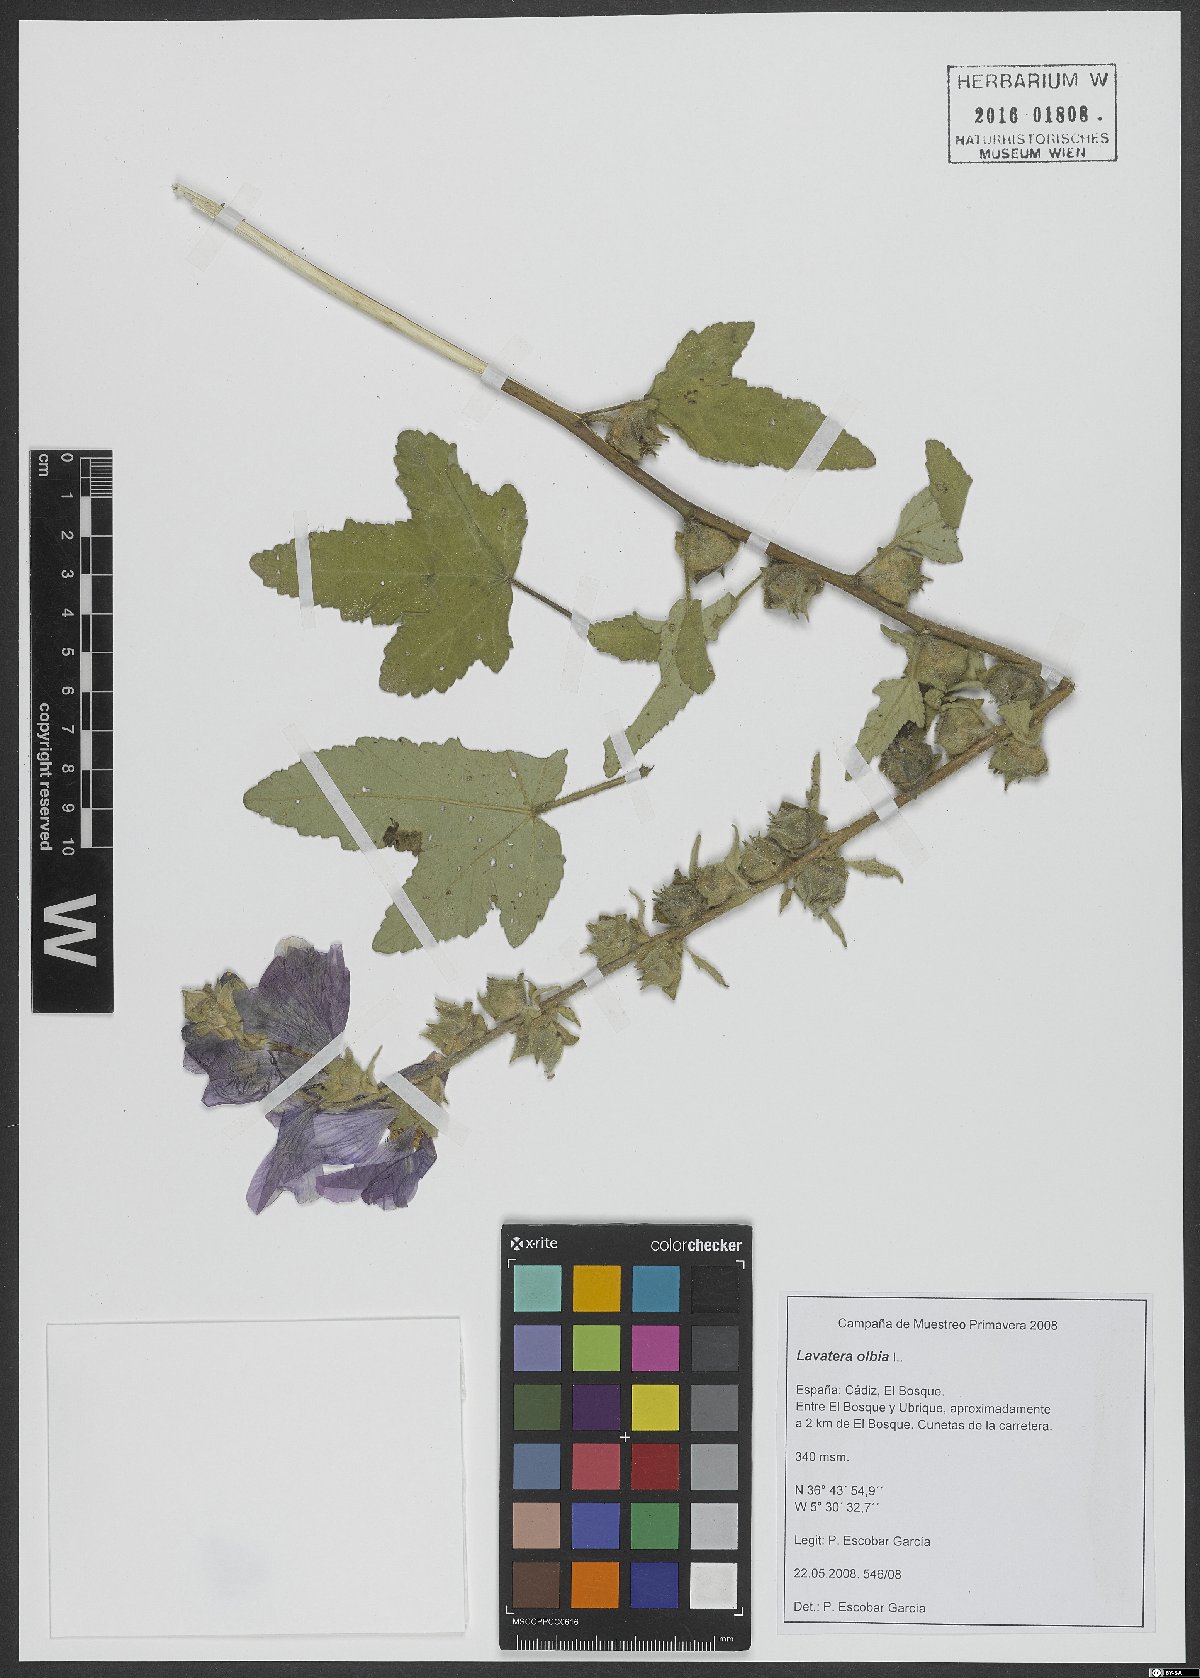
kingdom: Plantae
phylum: Tracheophyta
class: Magnoliopsida
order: Malvales
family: Malvaceae
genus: Malva
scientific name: Malva olbia
